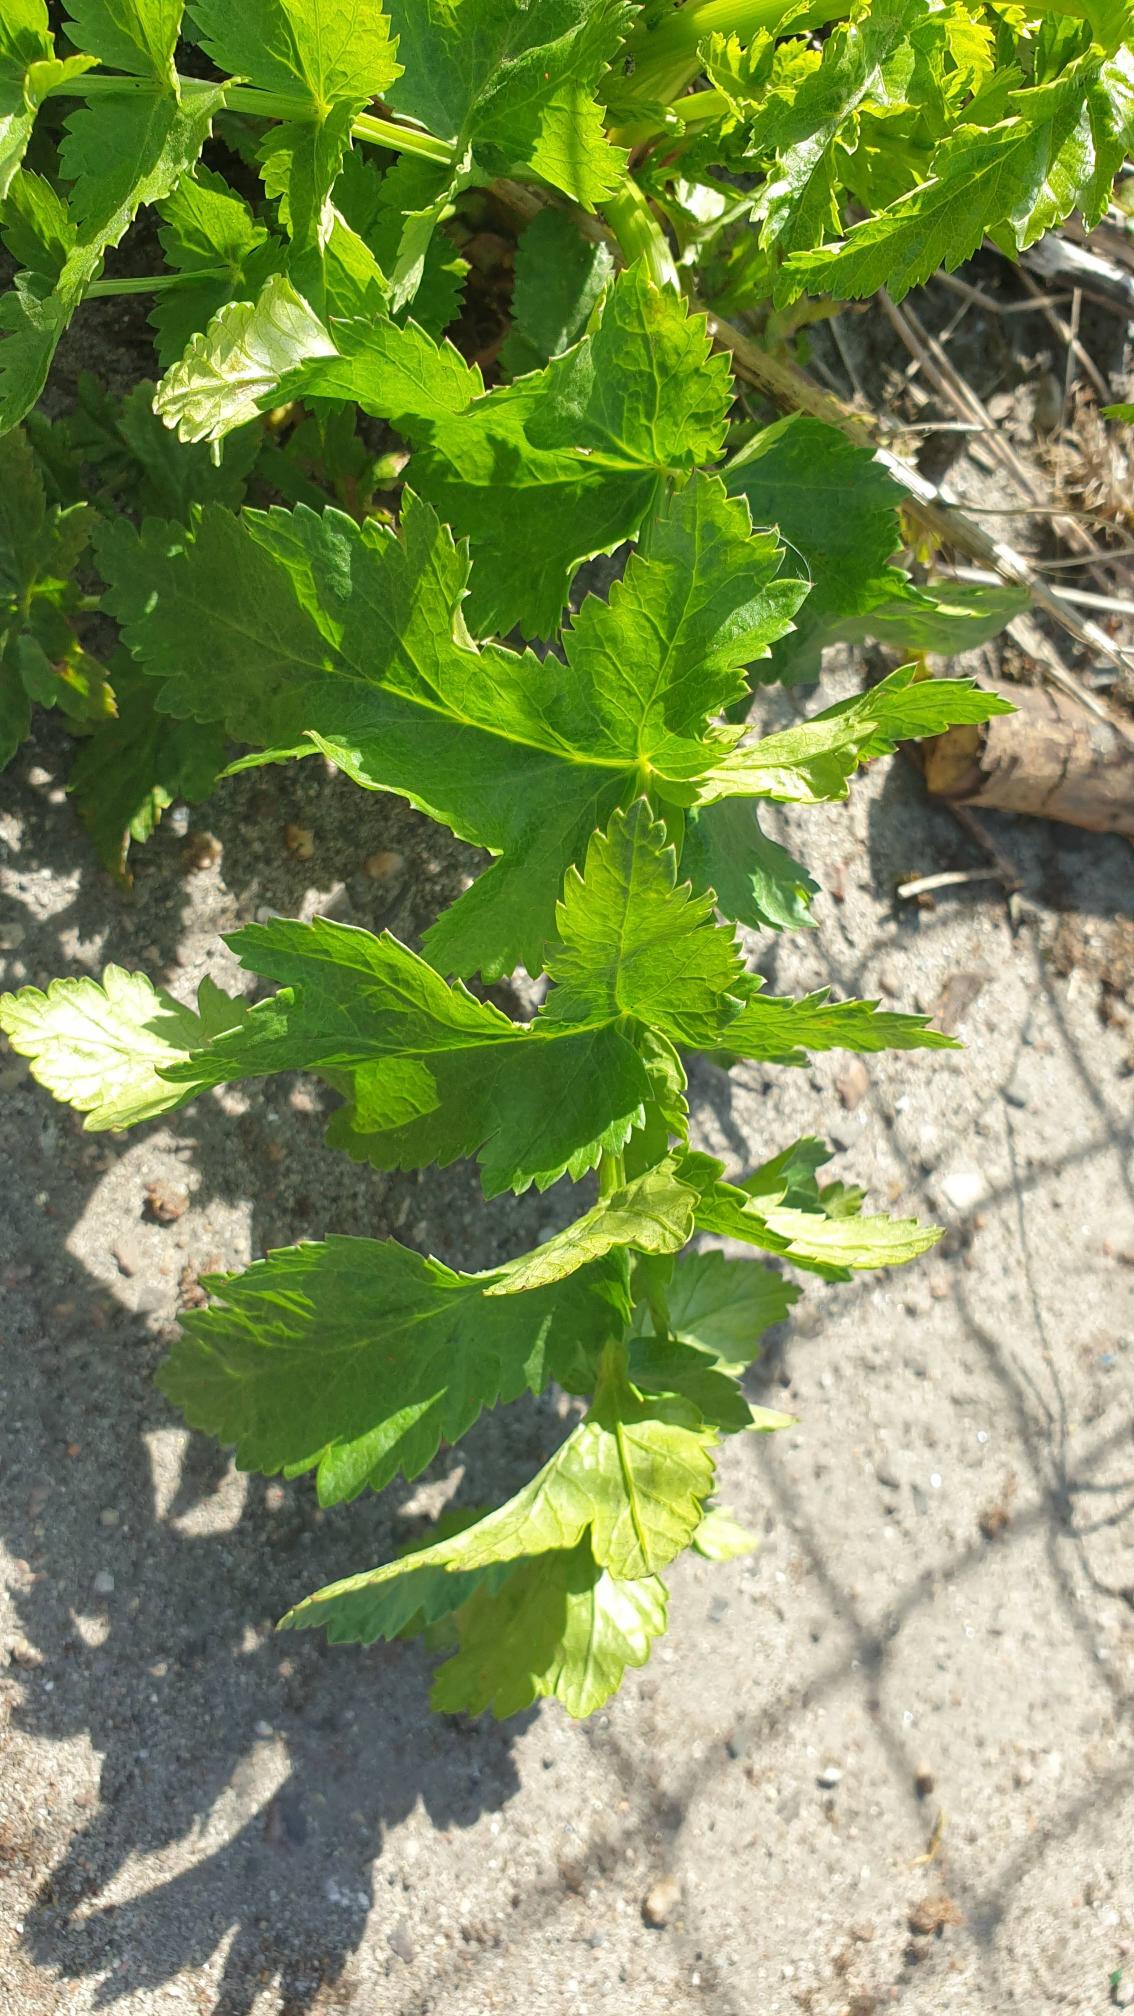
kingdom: Plantae
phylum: Tracheophyta
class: Magnoliopsida
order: Apiales
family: Apiaceae
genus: Pastinaca
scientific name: Pastinaca sativa
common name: Pastinak
